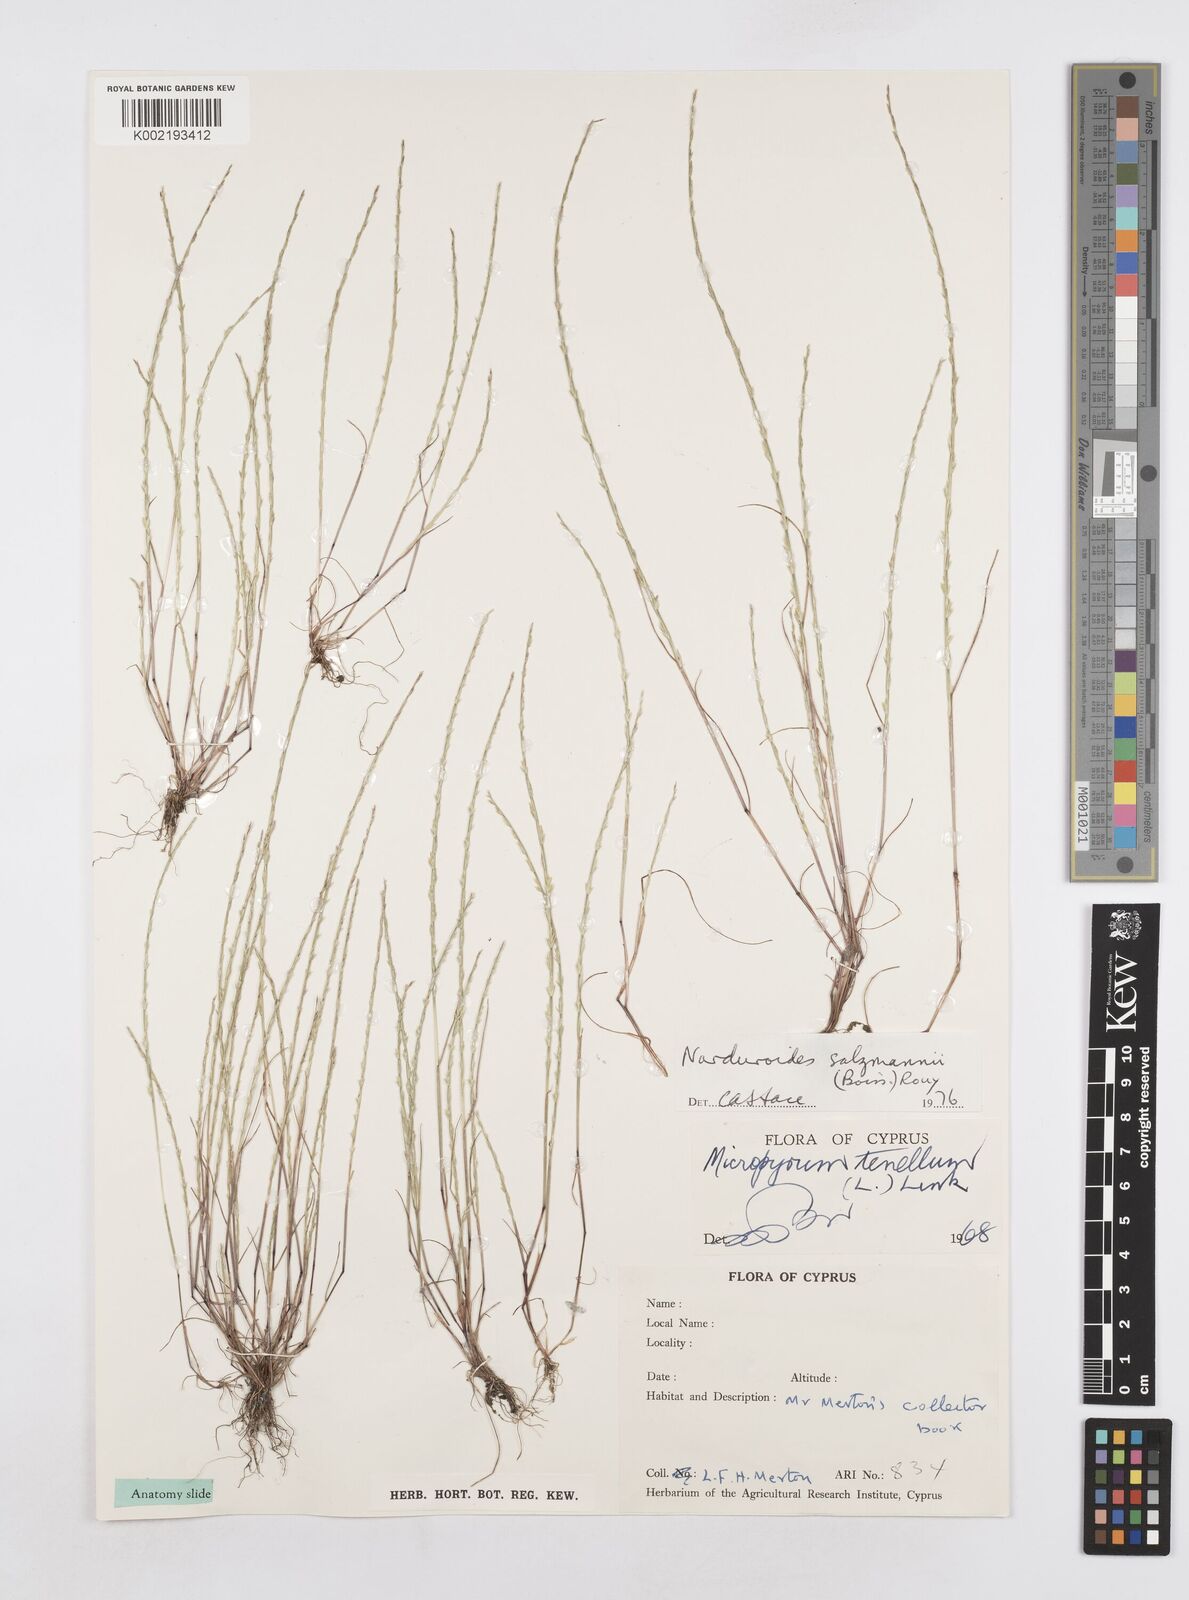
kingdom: Plantae
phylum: Tracheophyta
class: Liliopsida
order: Poales
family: Poaceae
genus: Festuca
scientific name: Festuca salzmannii
